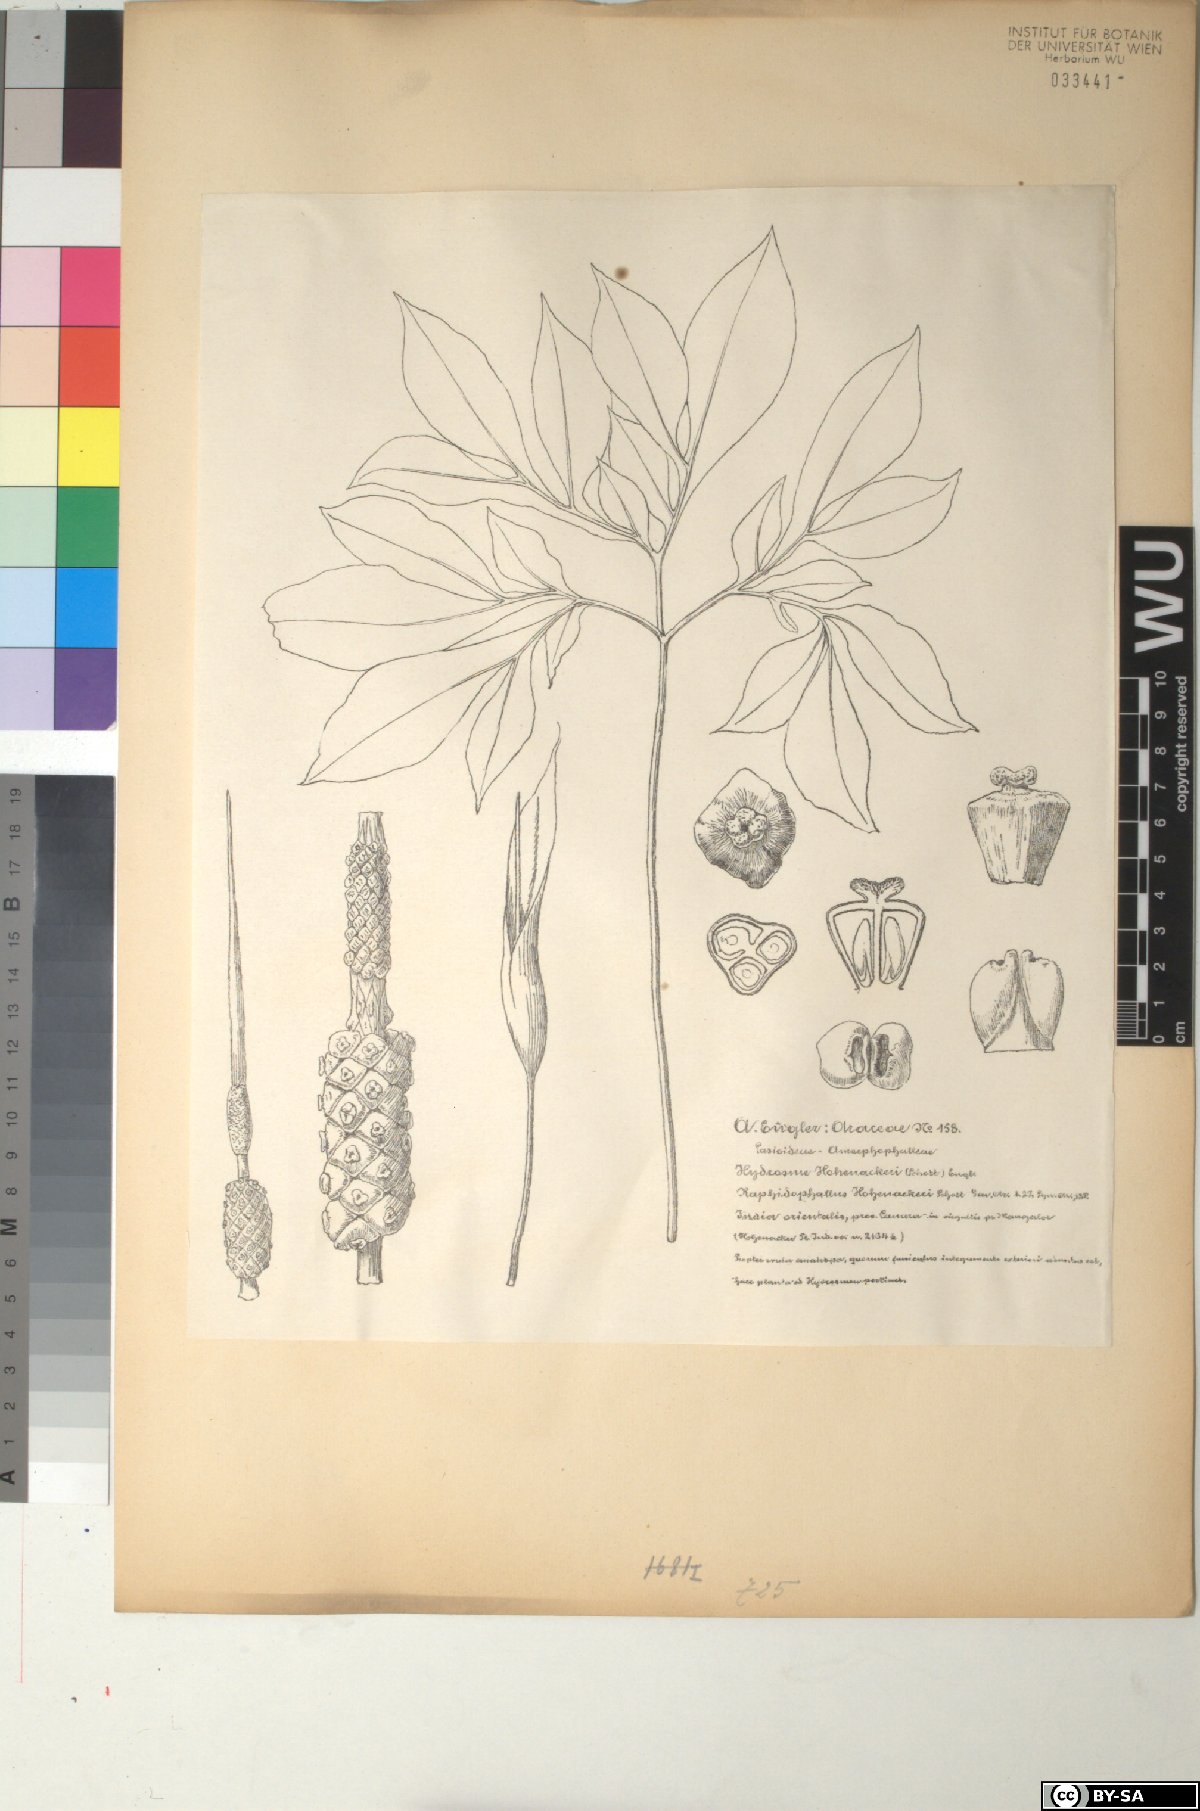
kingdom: Plantae
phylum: Tracheophyta
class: Liliopsida
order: Alismatales
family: Araceae
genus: Amorphophallus
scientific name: Amorphophallus hohenackeri
